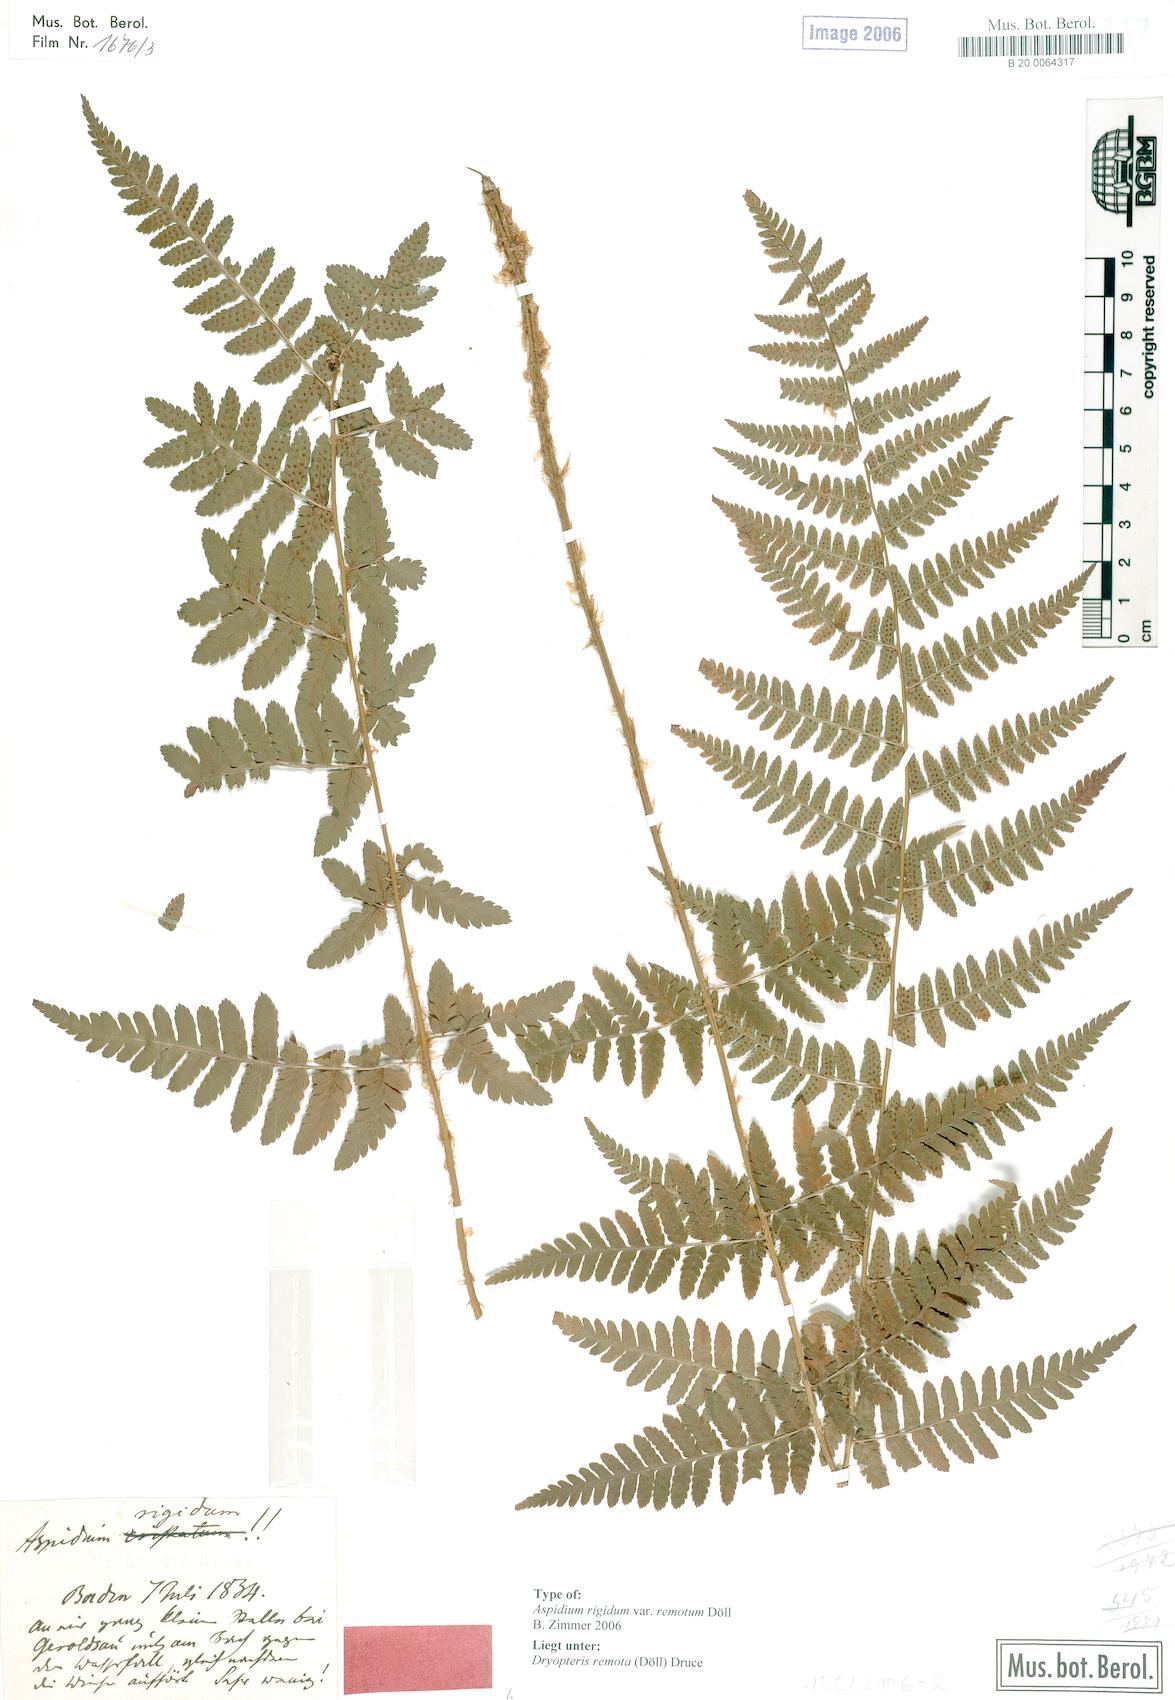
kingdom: Plantae
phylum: Tracheophyta
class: Polypodiopsida
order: Polypodiales
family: Dryopteridaceae
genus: Dryopteris
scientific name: Dryopteris remota
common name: Scaly buckler-fern
